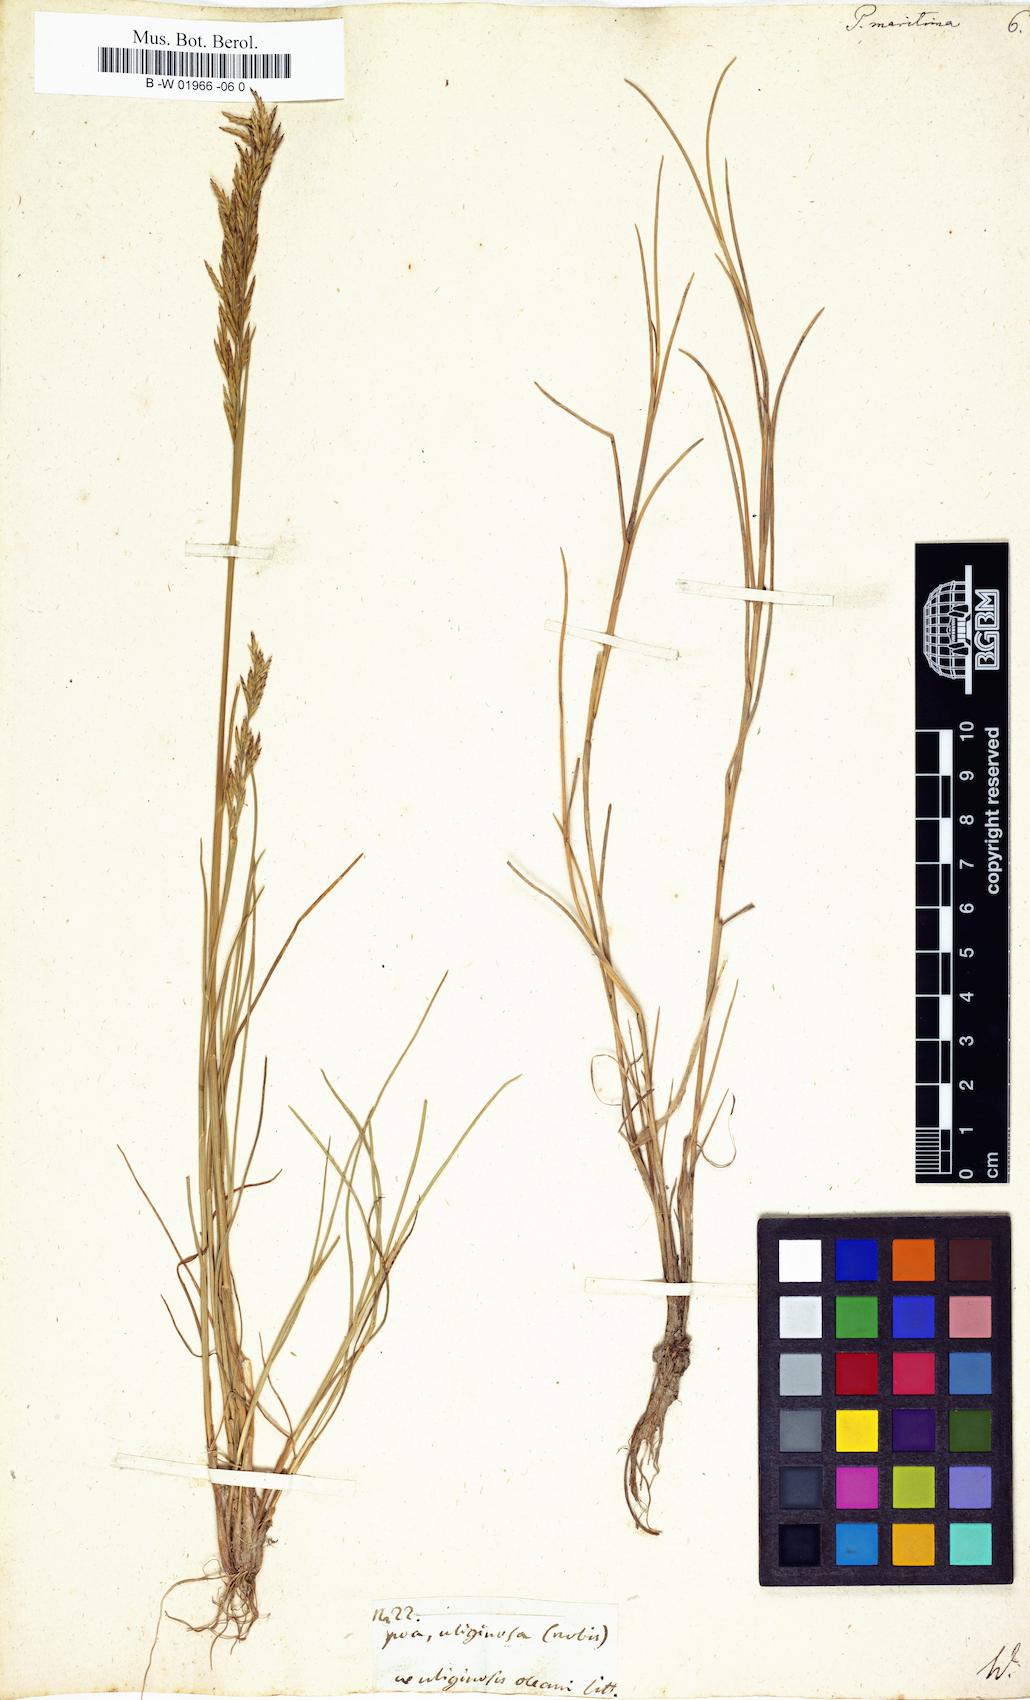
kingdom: Plantae
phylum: Tracheophyta
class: Liliopsida
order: Poales
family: Poaceae
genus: Poa
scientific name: Poa maritima
